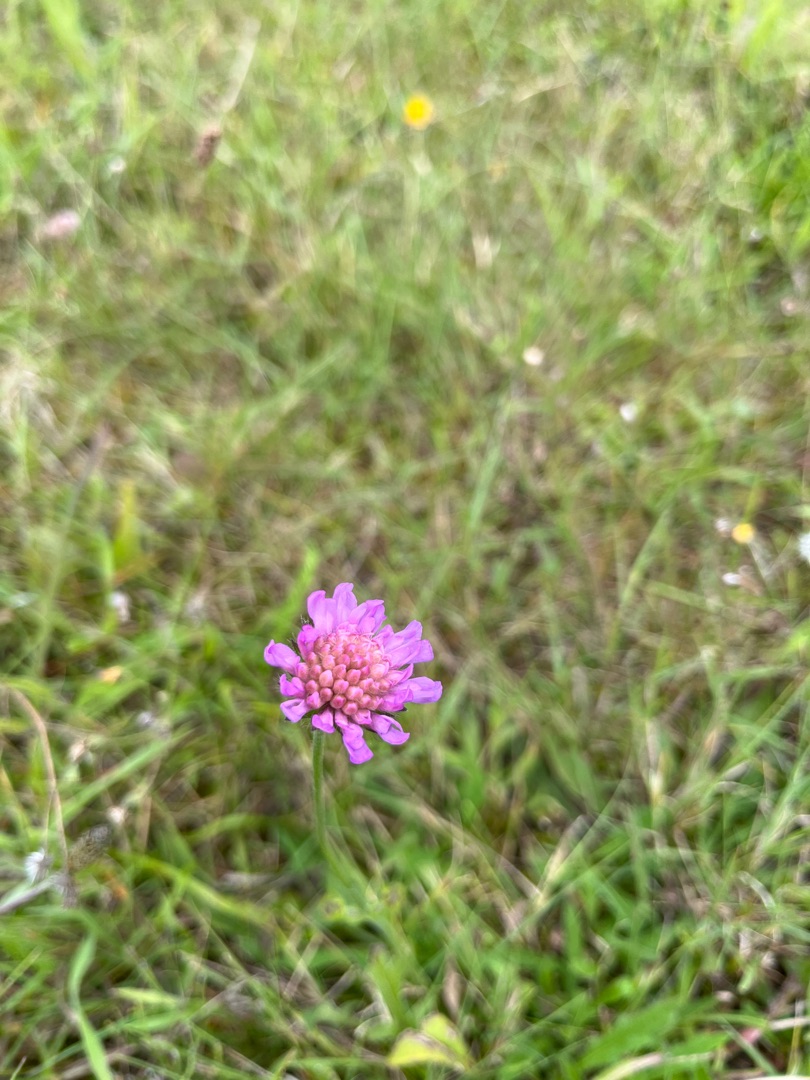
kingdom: Plantae
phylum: Tracheophyta
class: Magnoliopsida
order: Dipsacales
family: Caprifoliaceae
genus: Knautia
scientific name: Knautia arvensis
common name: Blåhat
